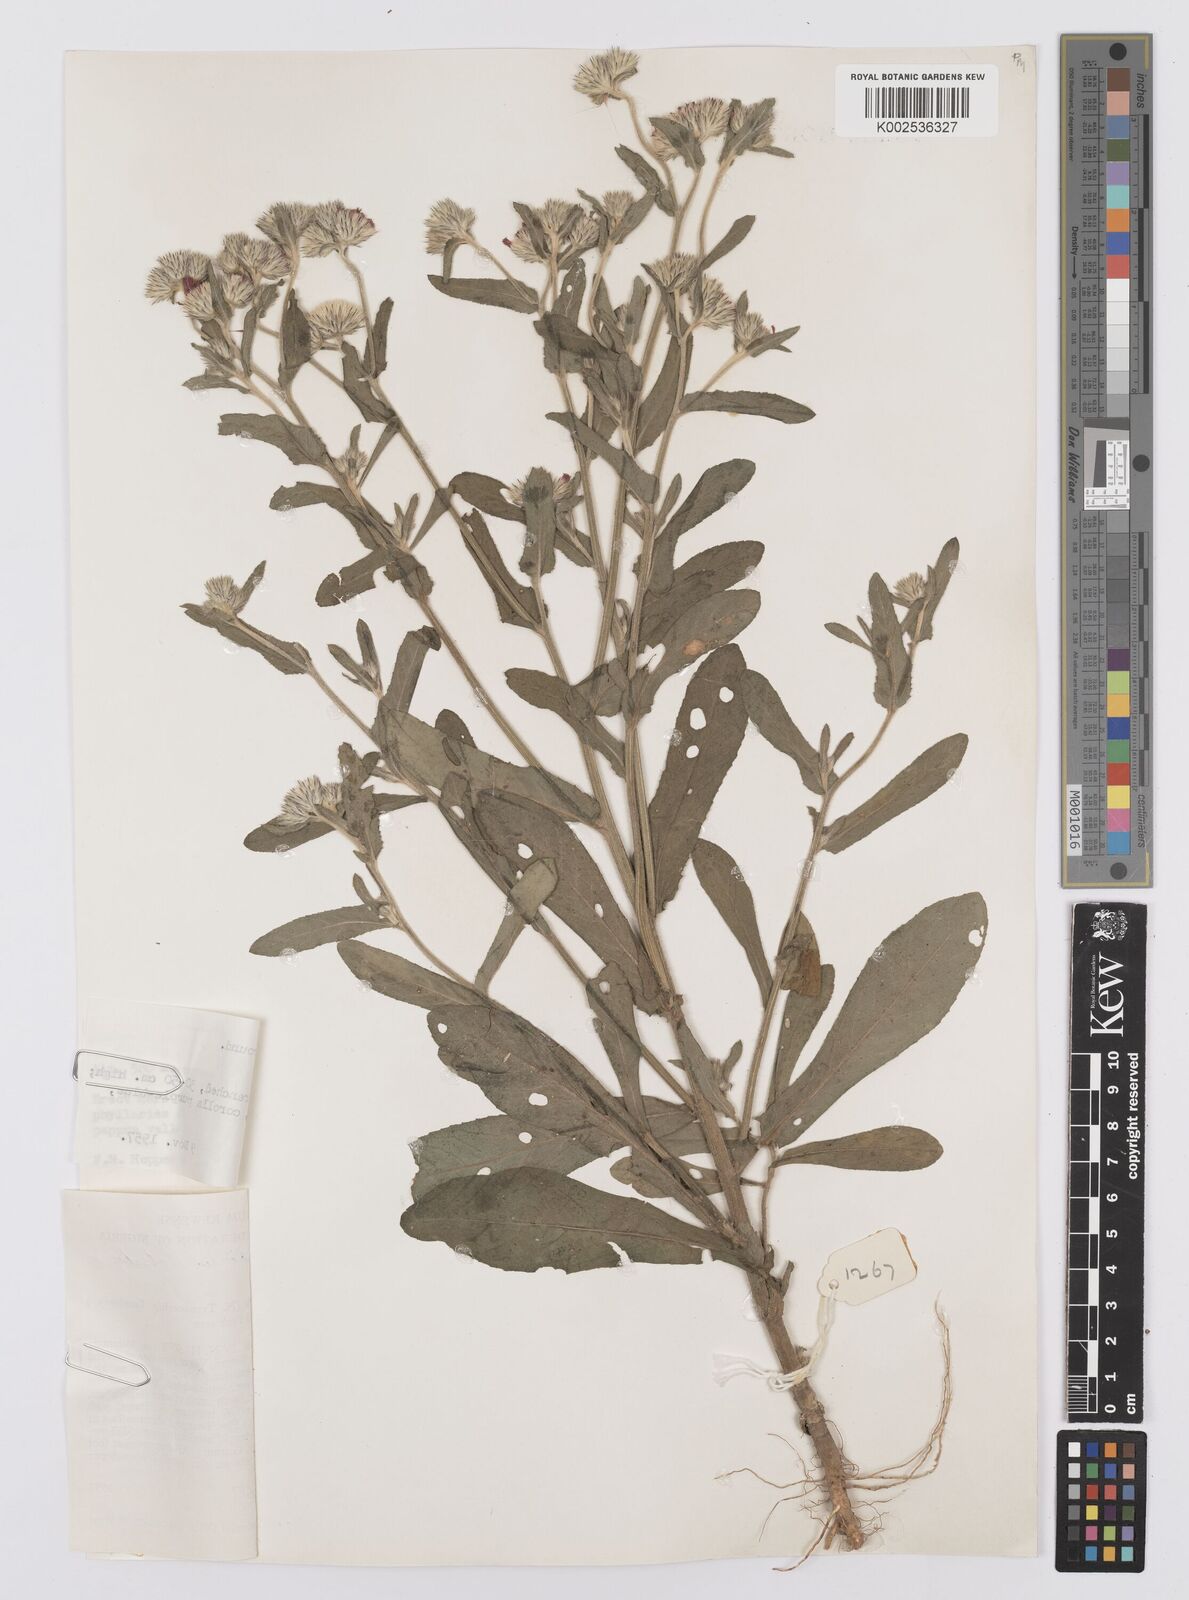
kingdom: Plantae
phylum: Tracheophyta
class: Magnoliopsida
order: Asterales
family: Asteraceae
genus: Vernoniastrum
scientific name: Vernoniastrum ambiguum
